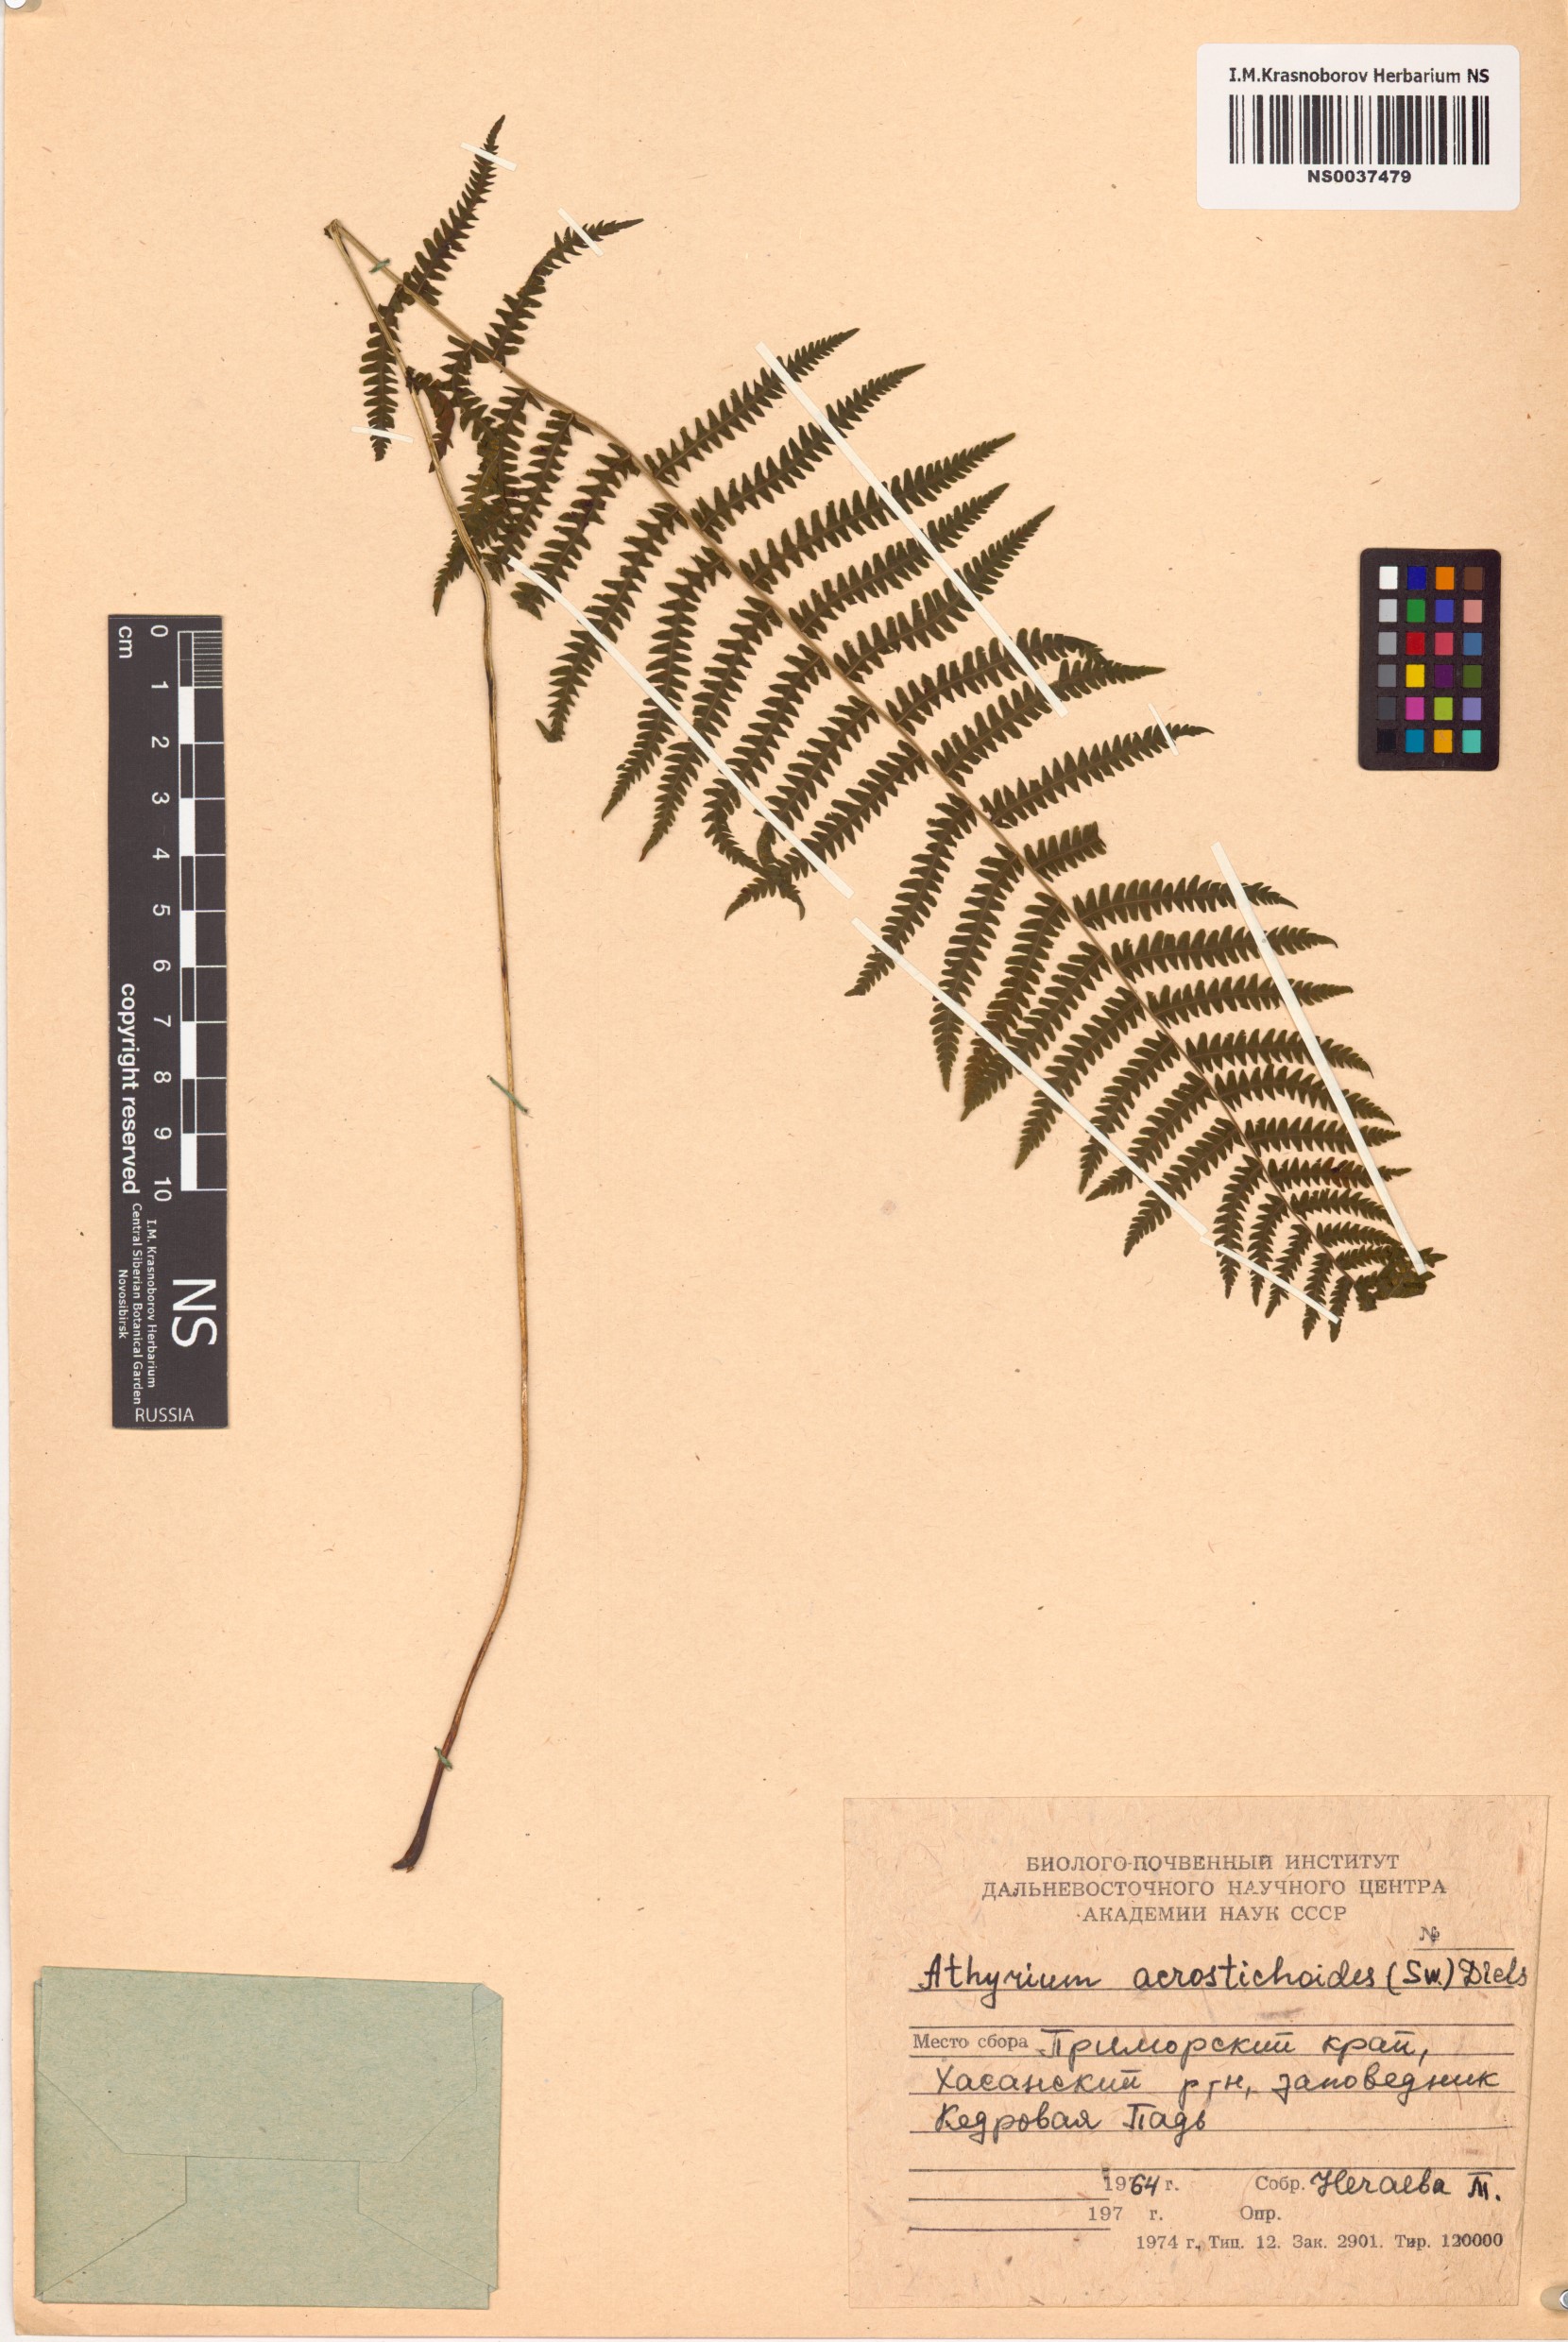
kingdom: Plantae
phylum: Tracheophyta
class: Polypodiopsida
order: Polypodiales
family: Athyriaceae
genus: Deparia
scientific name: Deparia acrostichoides
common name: Silver false spleenwort
